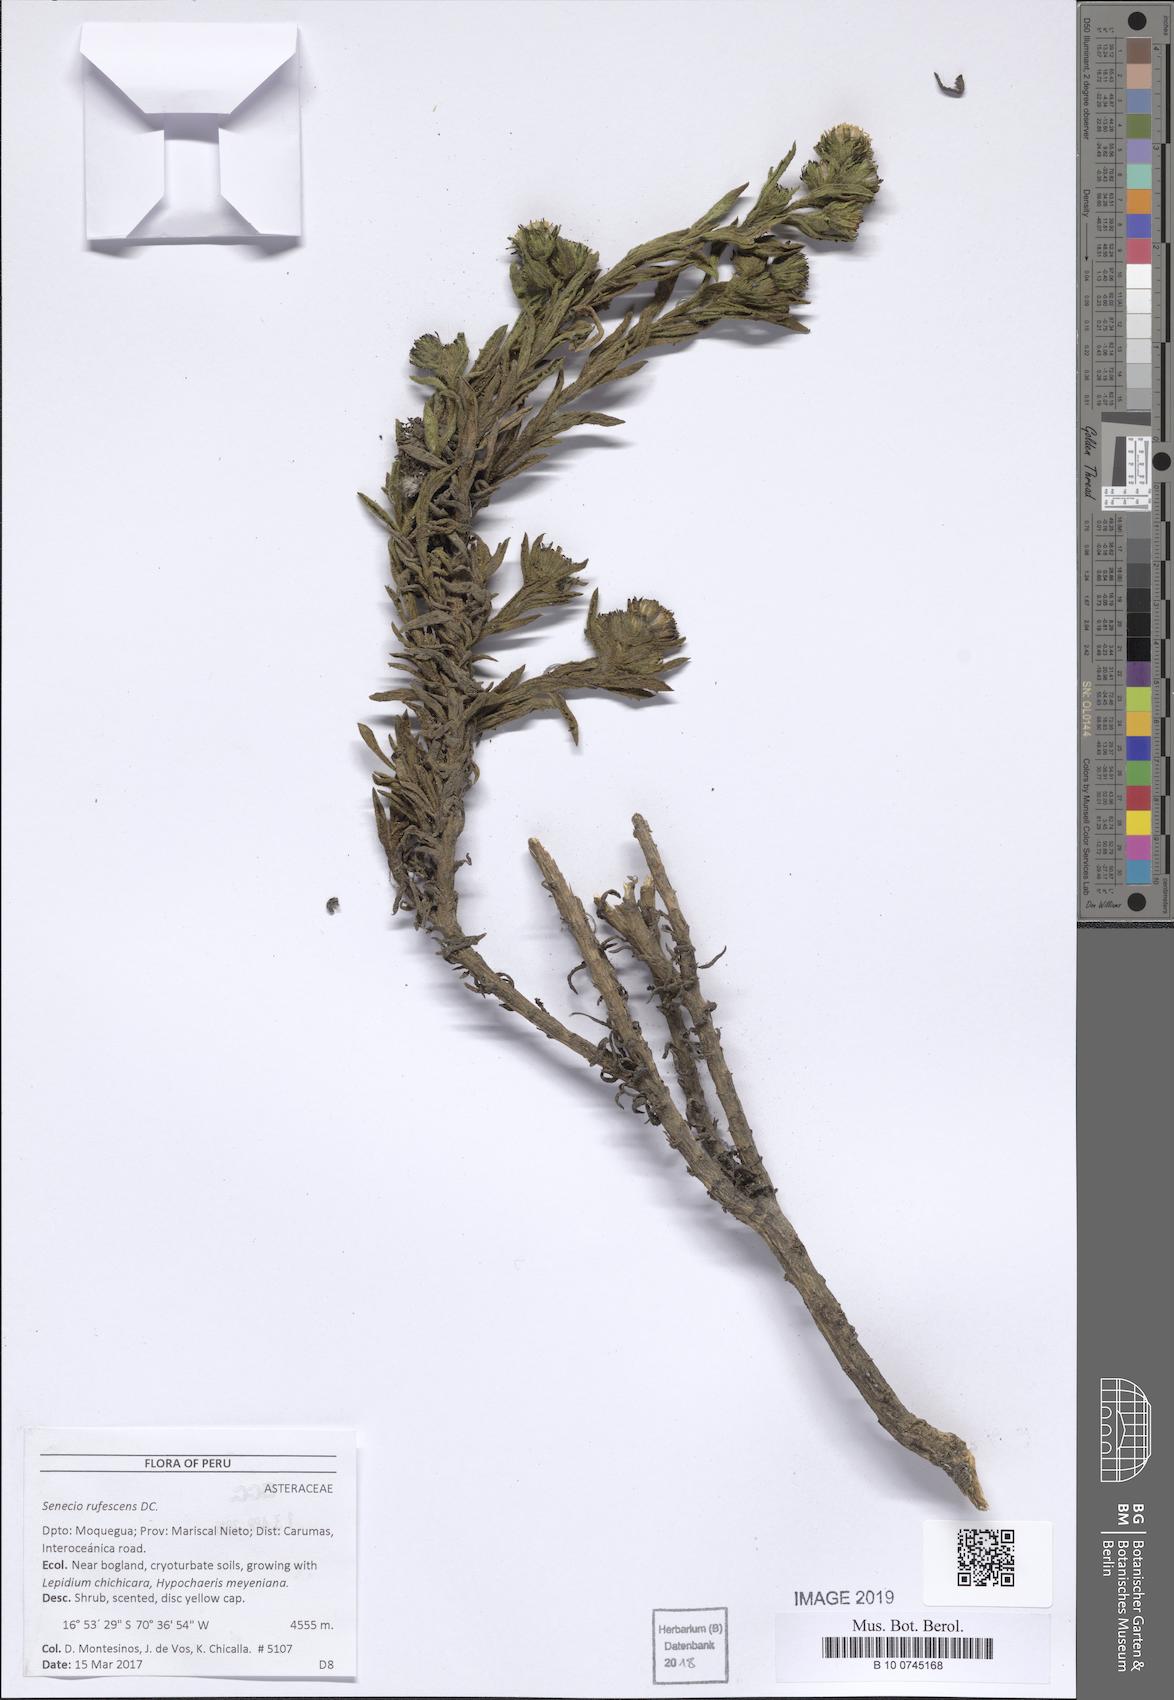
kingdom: Plantae
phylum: Tracheophyta
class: Magnoliopsida
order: Asterales
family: Asteraceae
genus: Senecio
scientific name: Senecio rufescens
